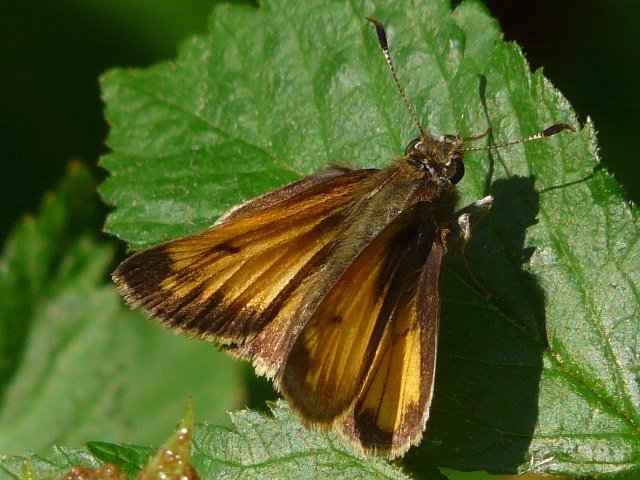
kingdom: Animalia
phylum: Arthropoda
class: Insecta
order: Lepidoptera
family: Hesperiidae
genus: Lon
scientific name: Lon hobomok
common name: Hobomok Skipper
